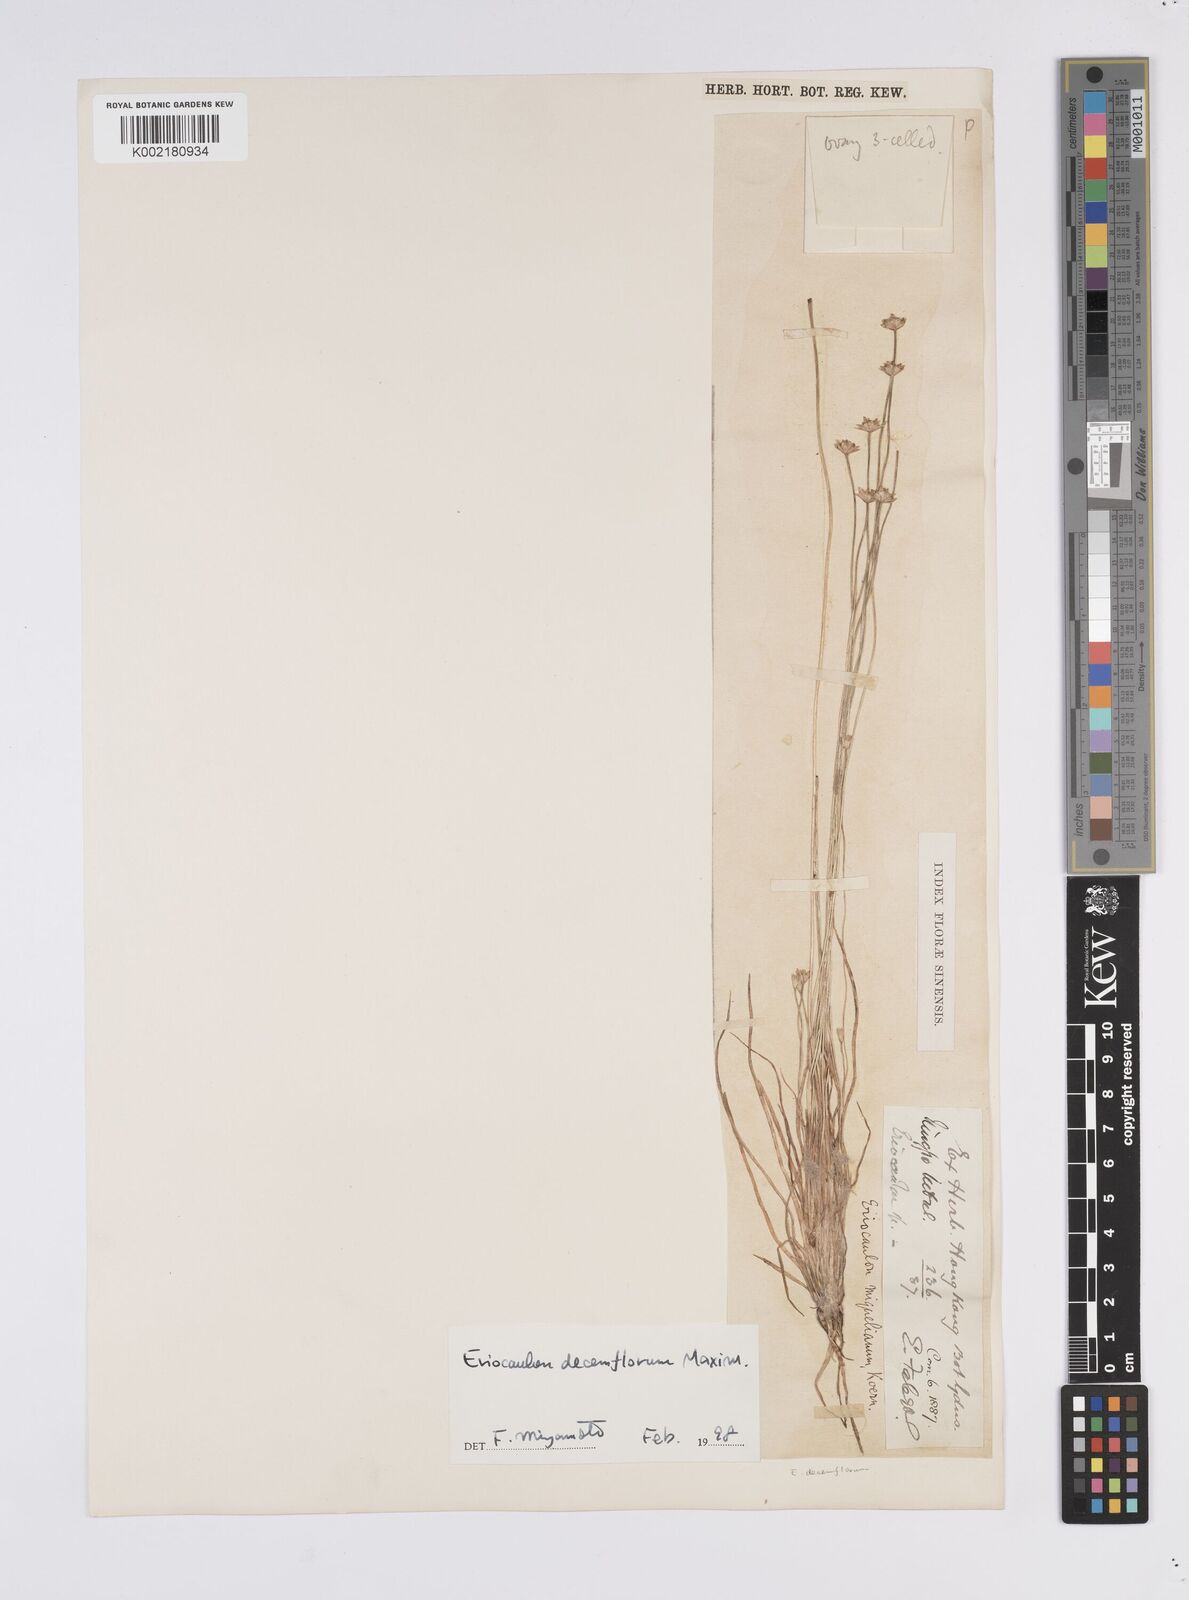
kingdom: Plantae
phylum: Tracheophyta
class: Liliopsida
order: Poales
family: Eriocaulaceae
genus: Eriocaulon
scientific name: Eriocaulon decemflorum
